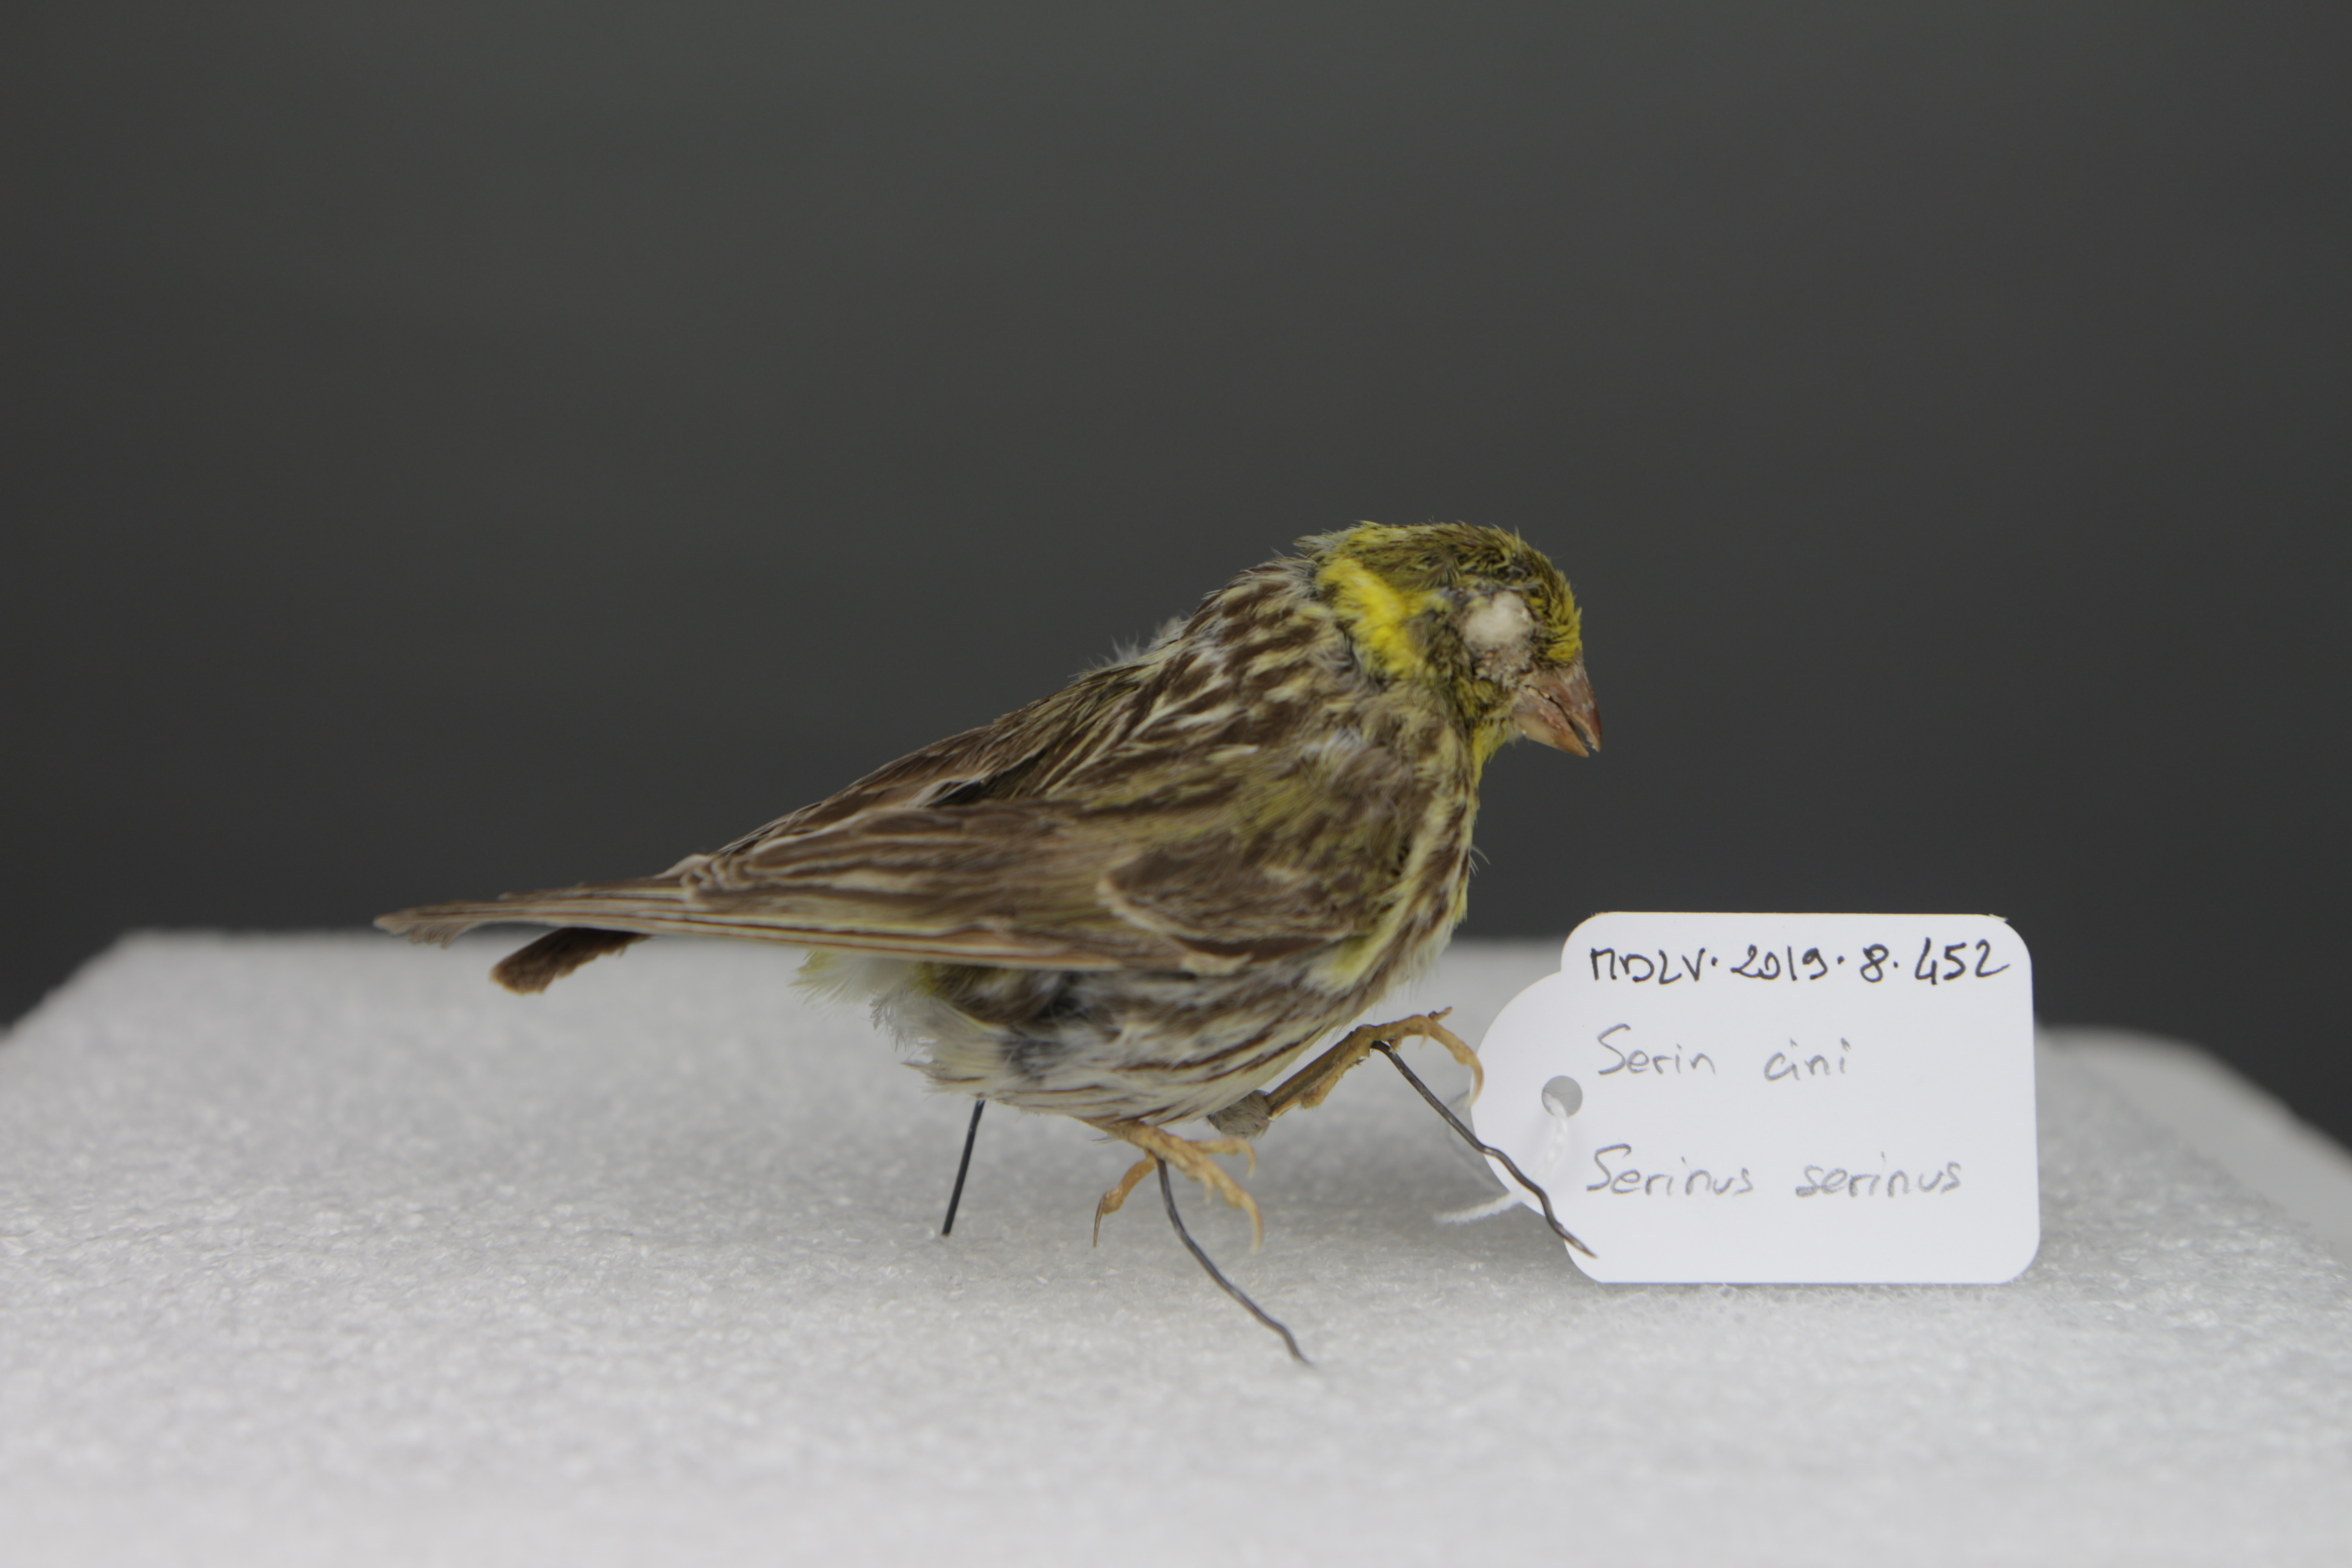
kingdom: Animalia
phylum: Chordata
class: Aves
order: Passeriformes
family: Fringillidae
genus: Serinus
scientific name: Serinus serinus
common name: European serin
